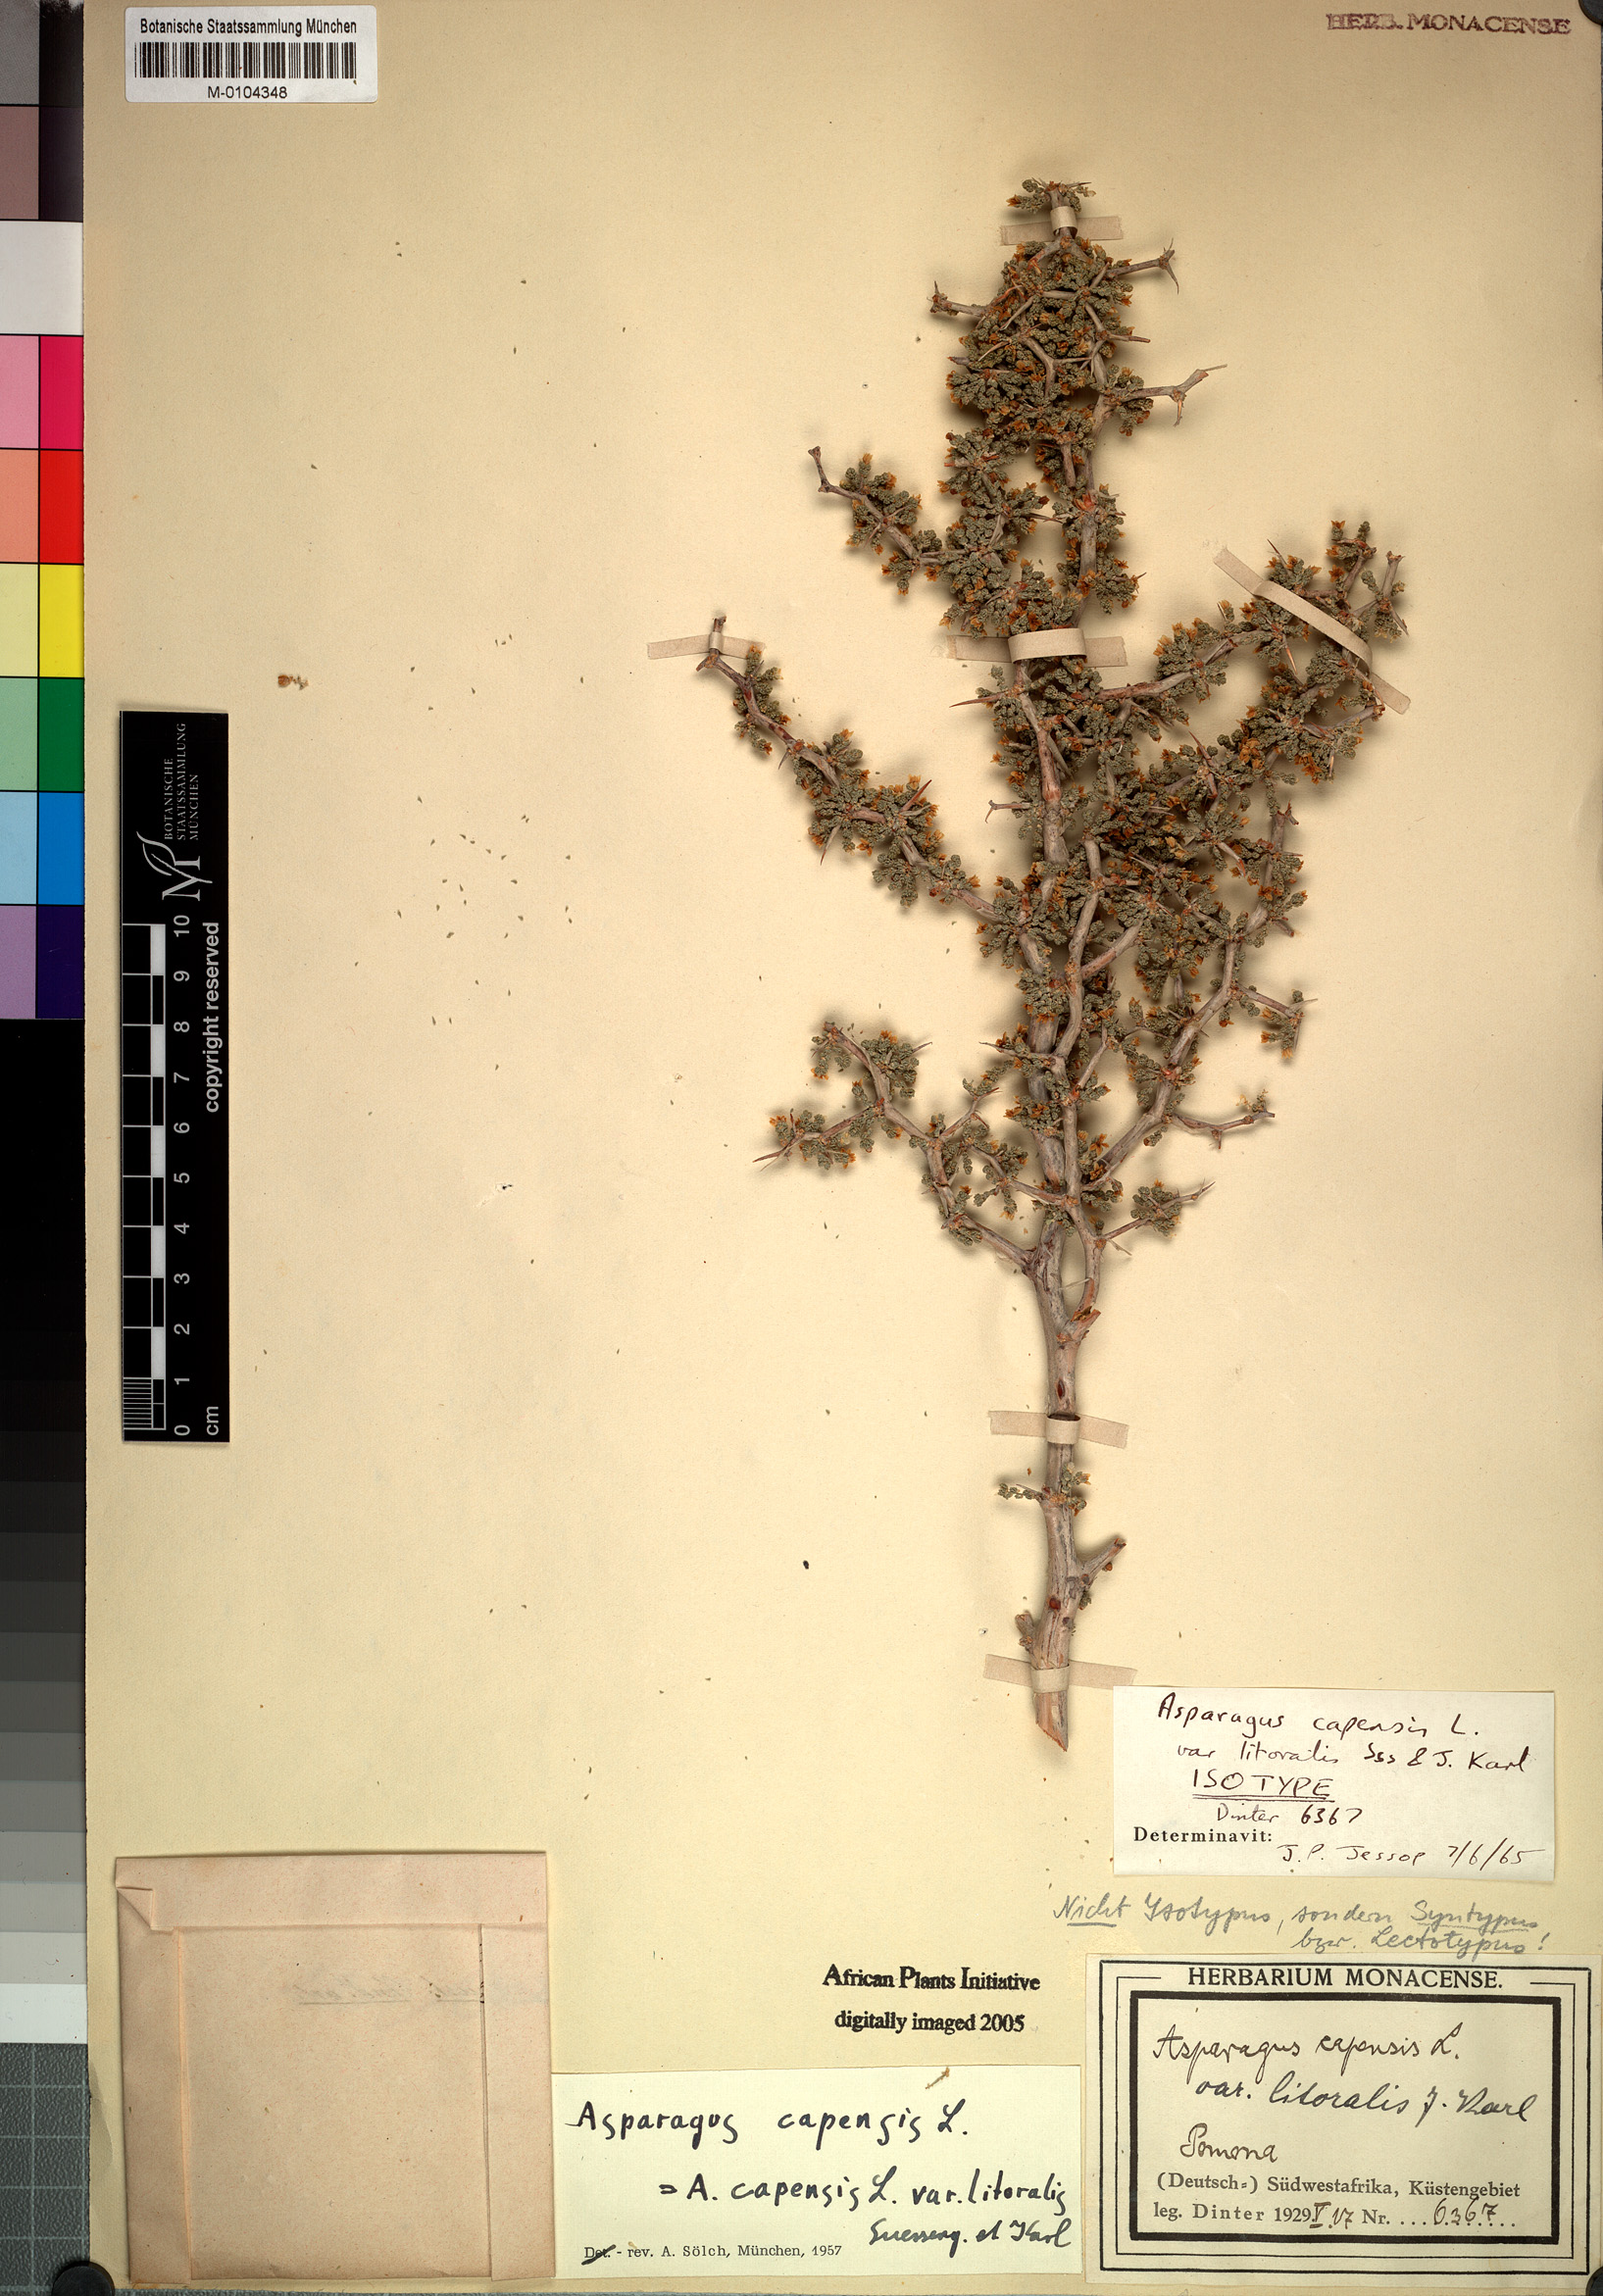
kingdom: Plantae
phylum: Tracheophyta
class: Liliopsida
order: Asparagales
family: Asparagaceae
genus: Asparagus
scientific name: Asparagus capensis
